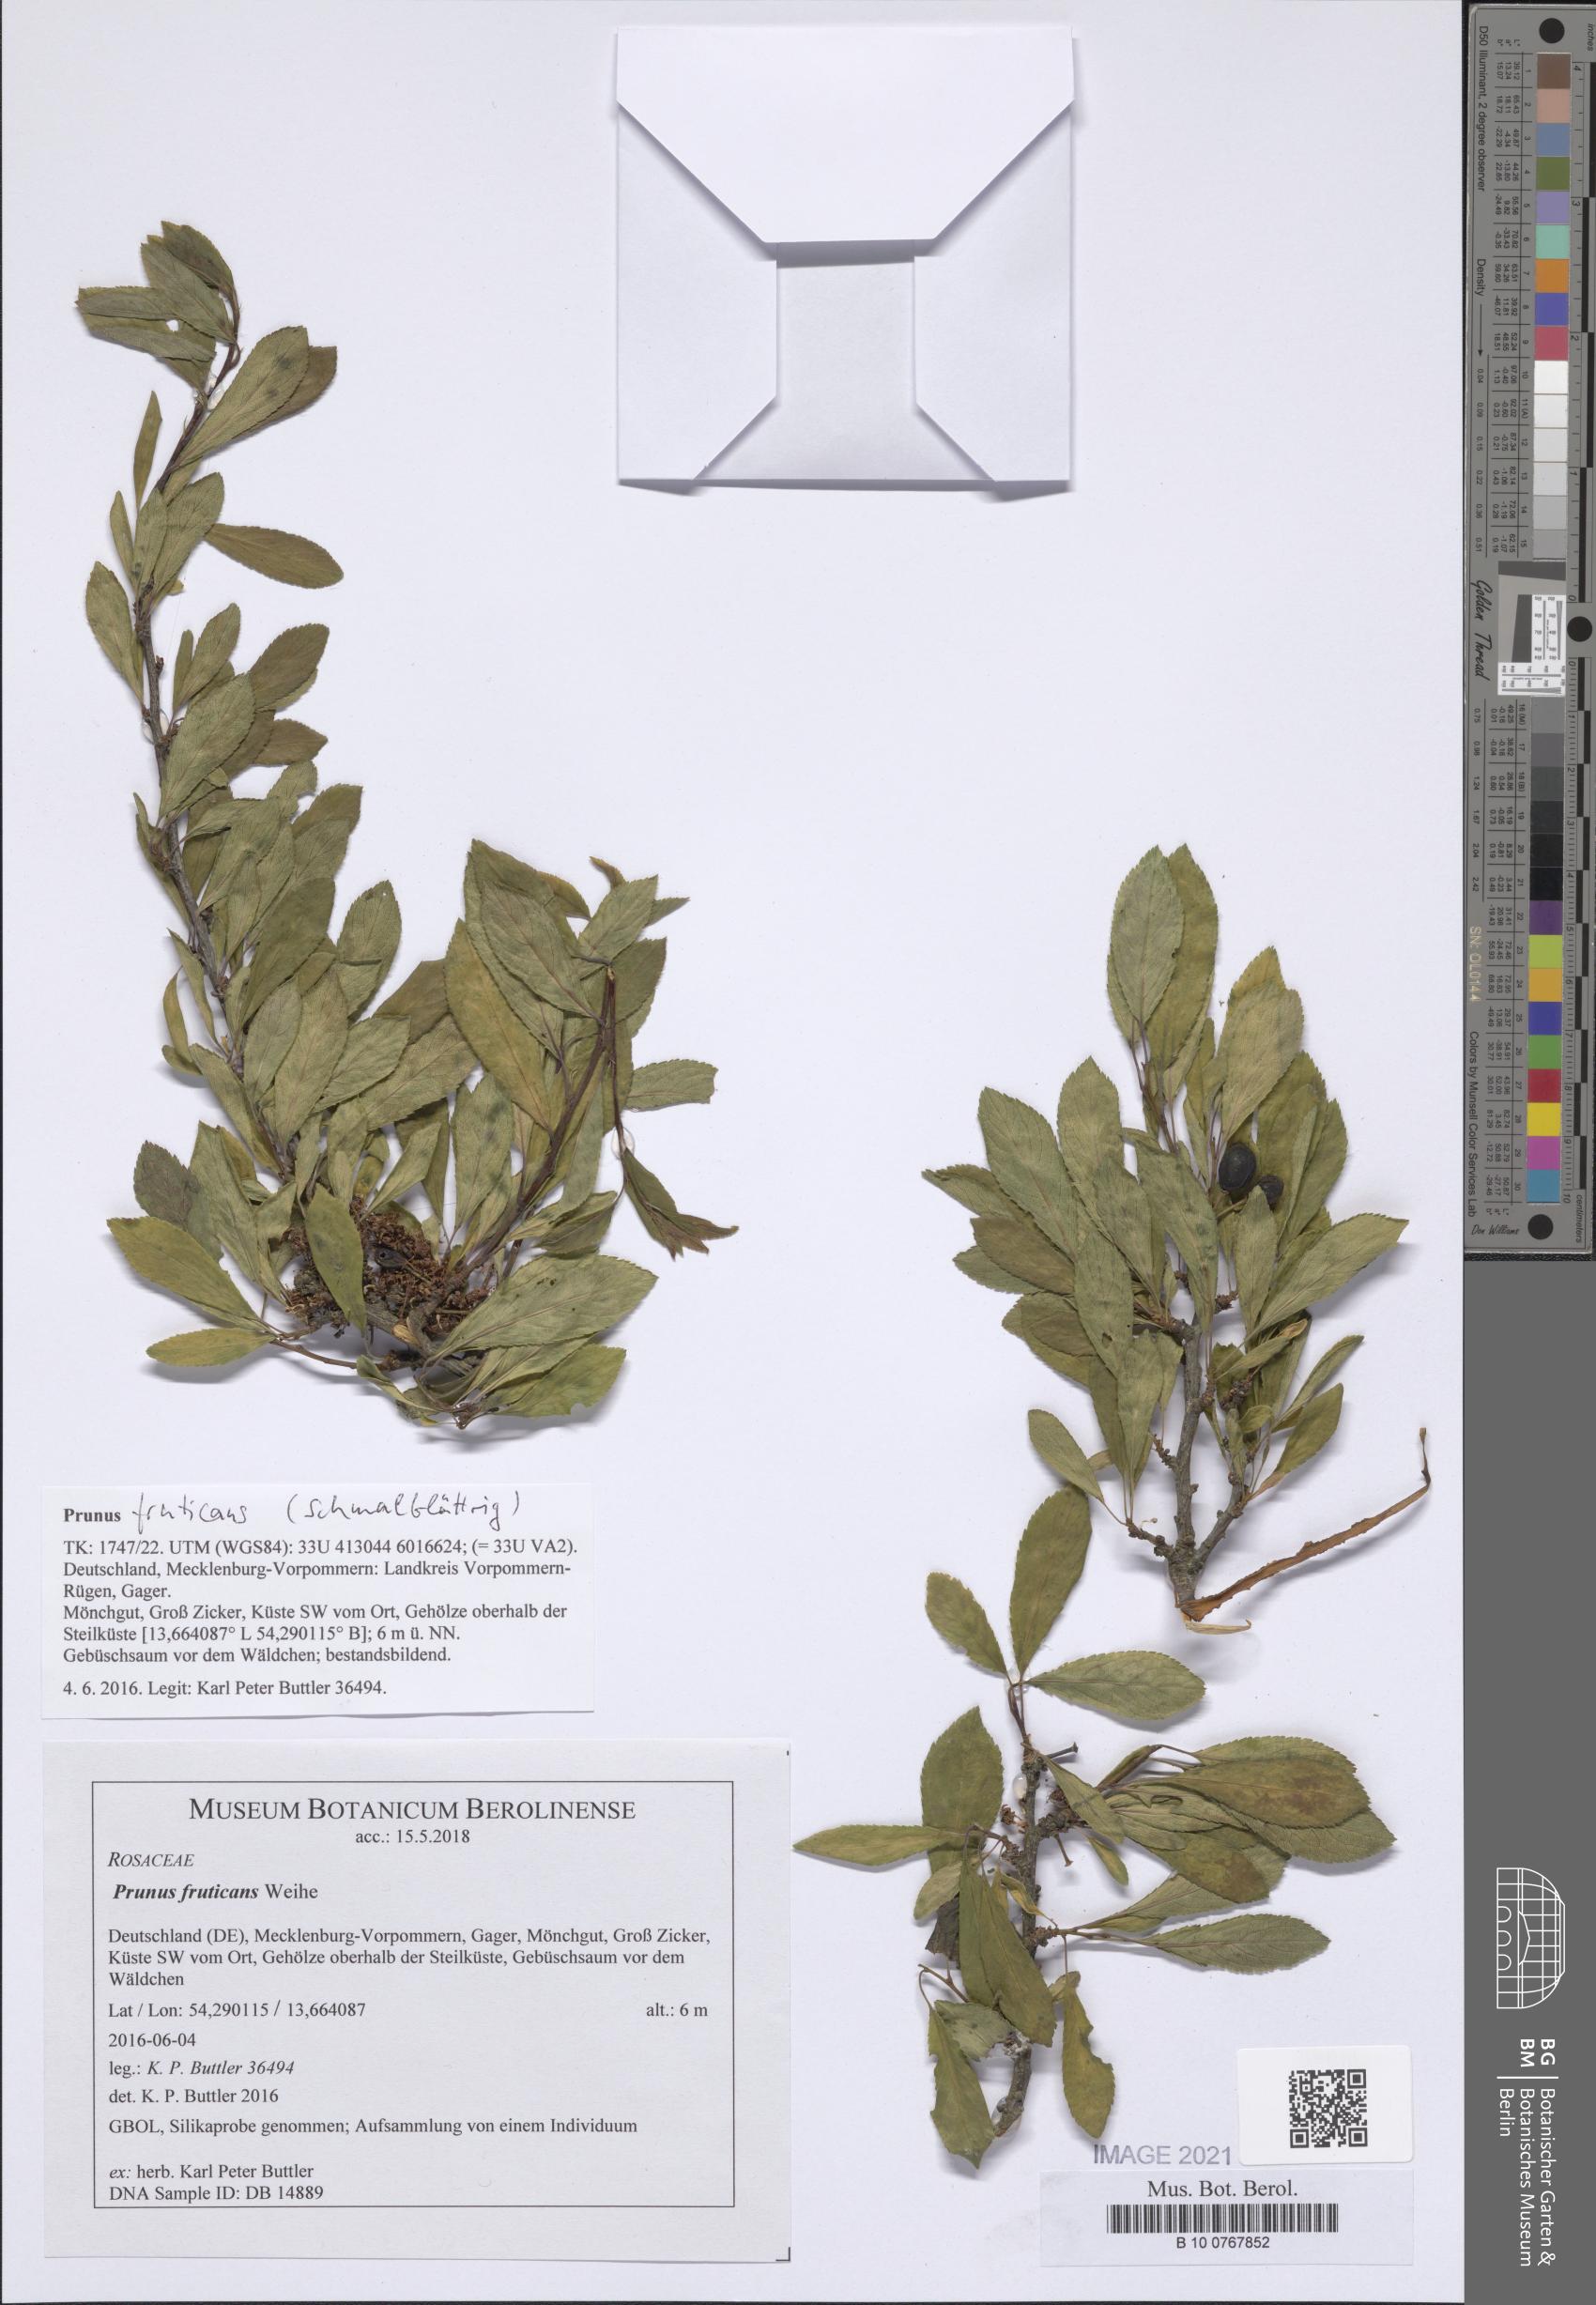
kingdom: Plantae
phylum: Tracheophyta
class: Magnoliopsida
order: Rosales
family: Rosaceae
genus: Prunus
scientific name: Prunus fruticans
